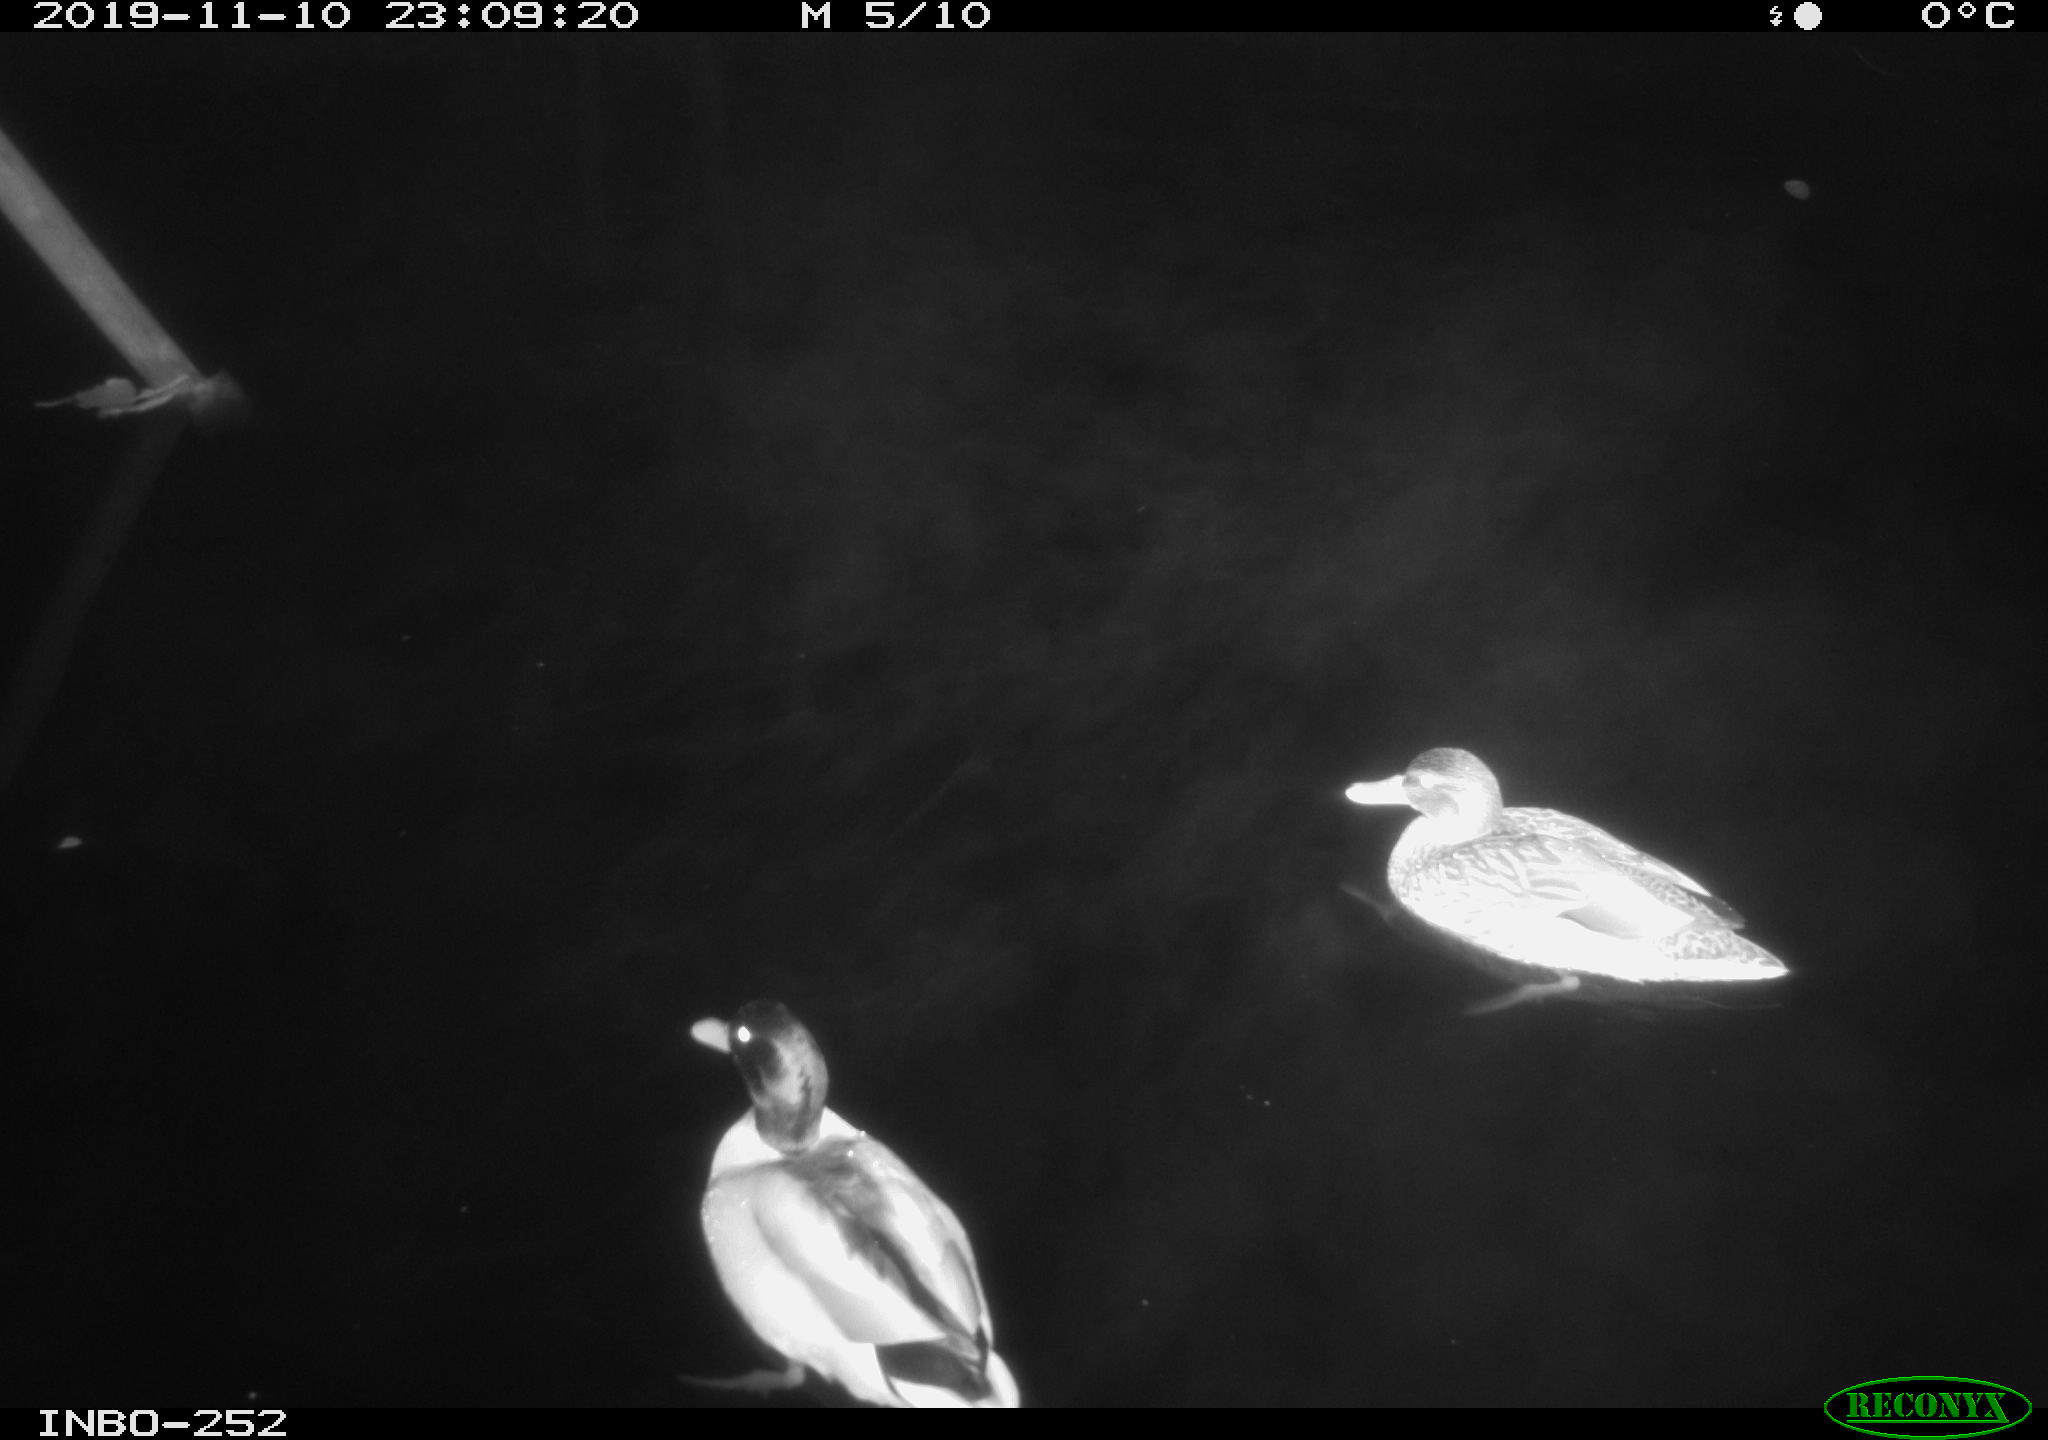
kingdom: Animalia
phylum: Chordata
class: Aves
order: Anseriformes
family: Anatidae
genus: Anas
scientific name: Anas platyrhynchos
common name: Mallard
